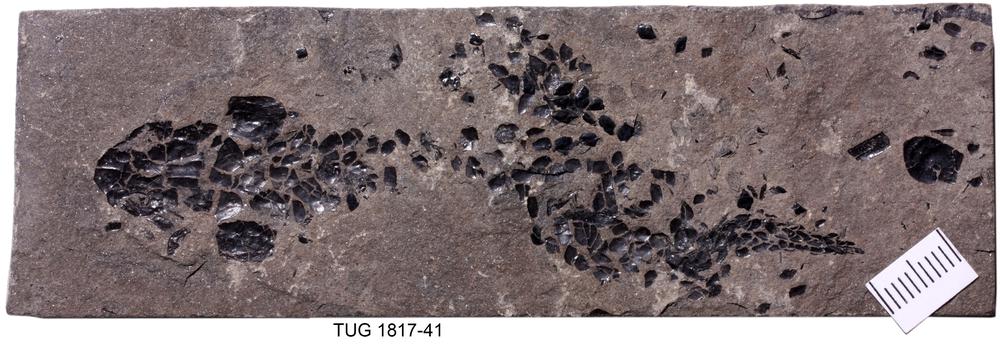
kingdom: Animalia
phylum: Chordata
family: Osteolepididae
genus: Osteolepis
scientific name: Osteolepis panderi
